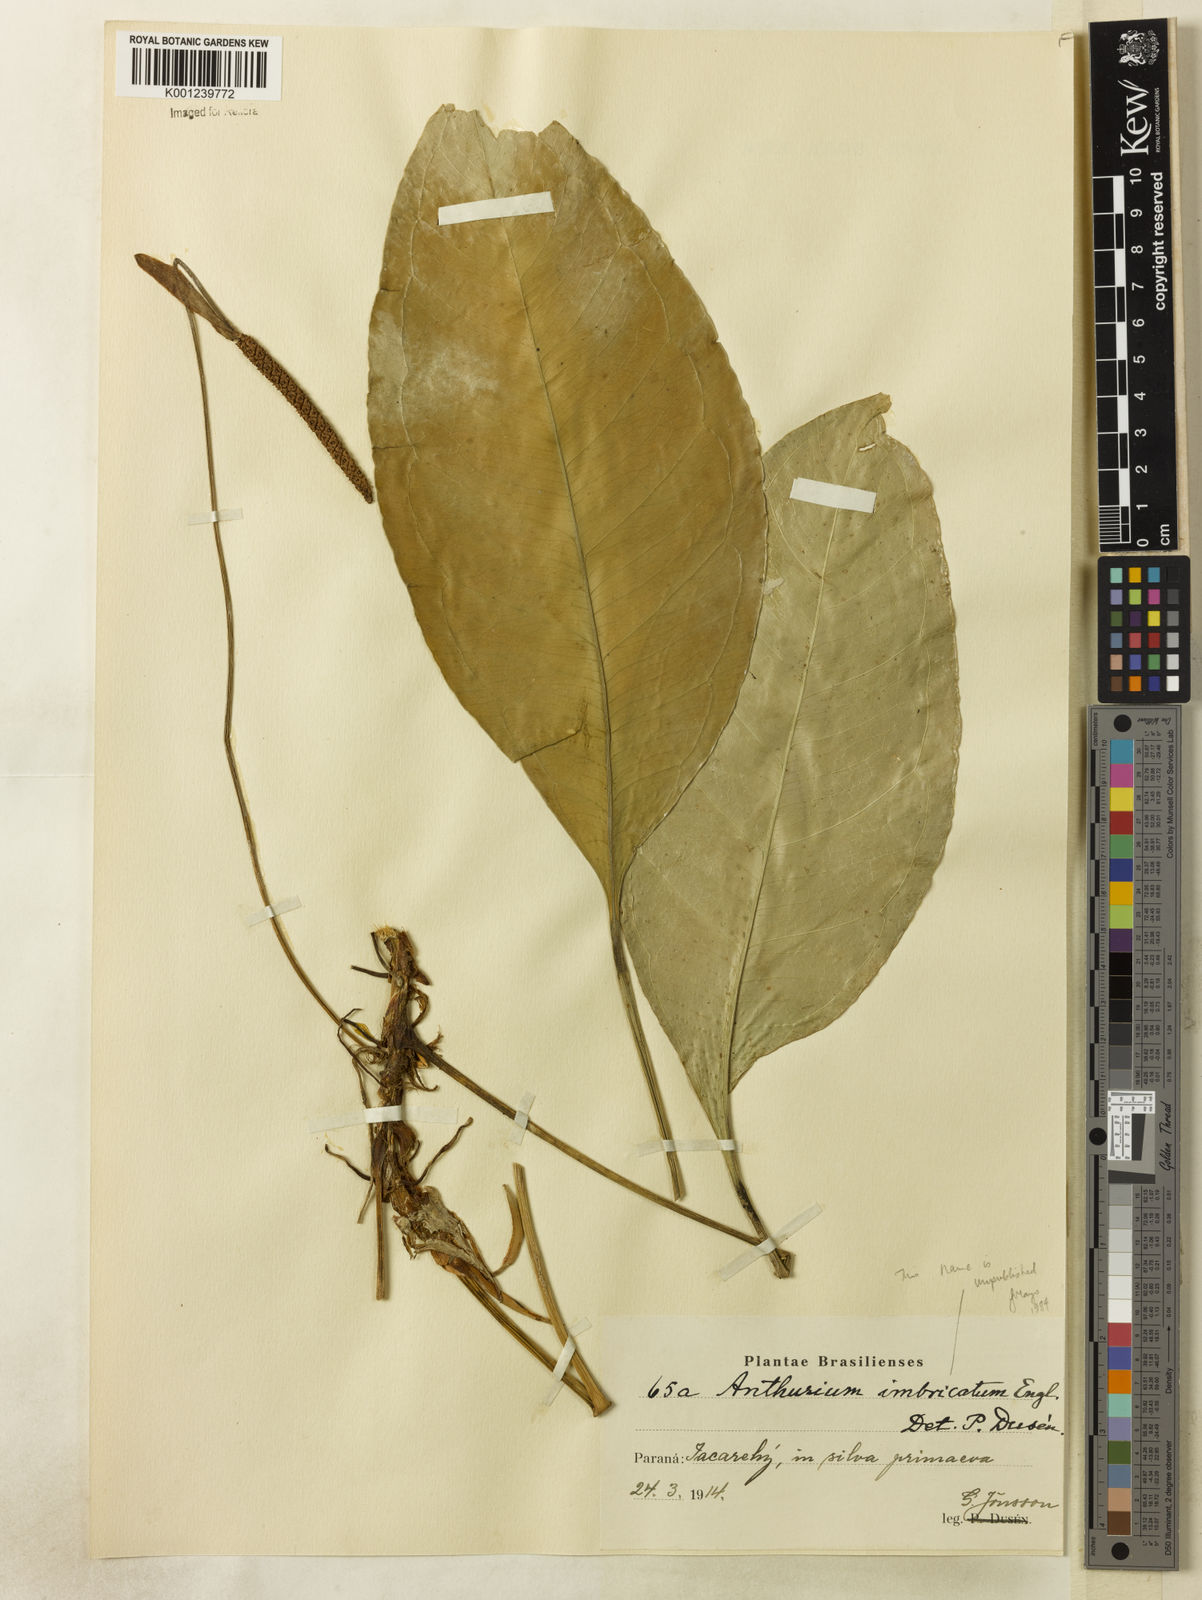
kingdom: Plantae
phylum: Tracheophyta
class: Liliopsida
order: Alismatales
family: Araceae
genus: Anthurium
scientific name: Anthurium
